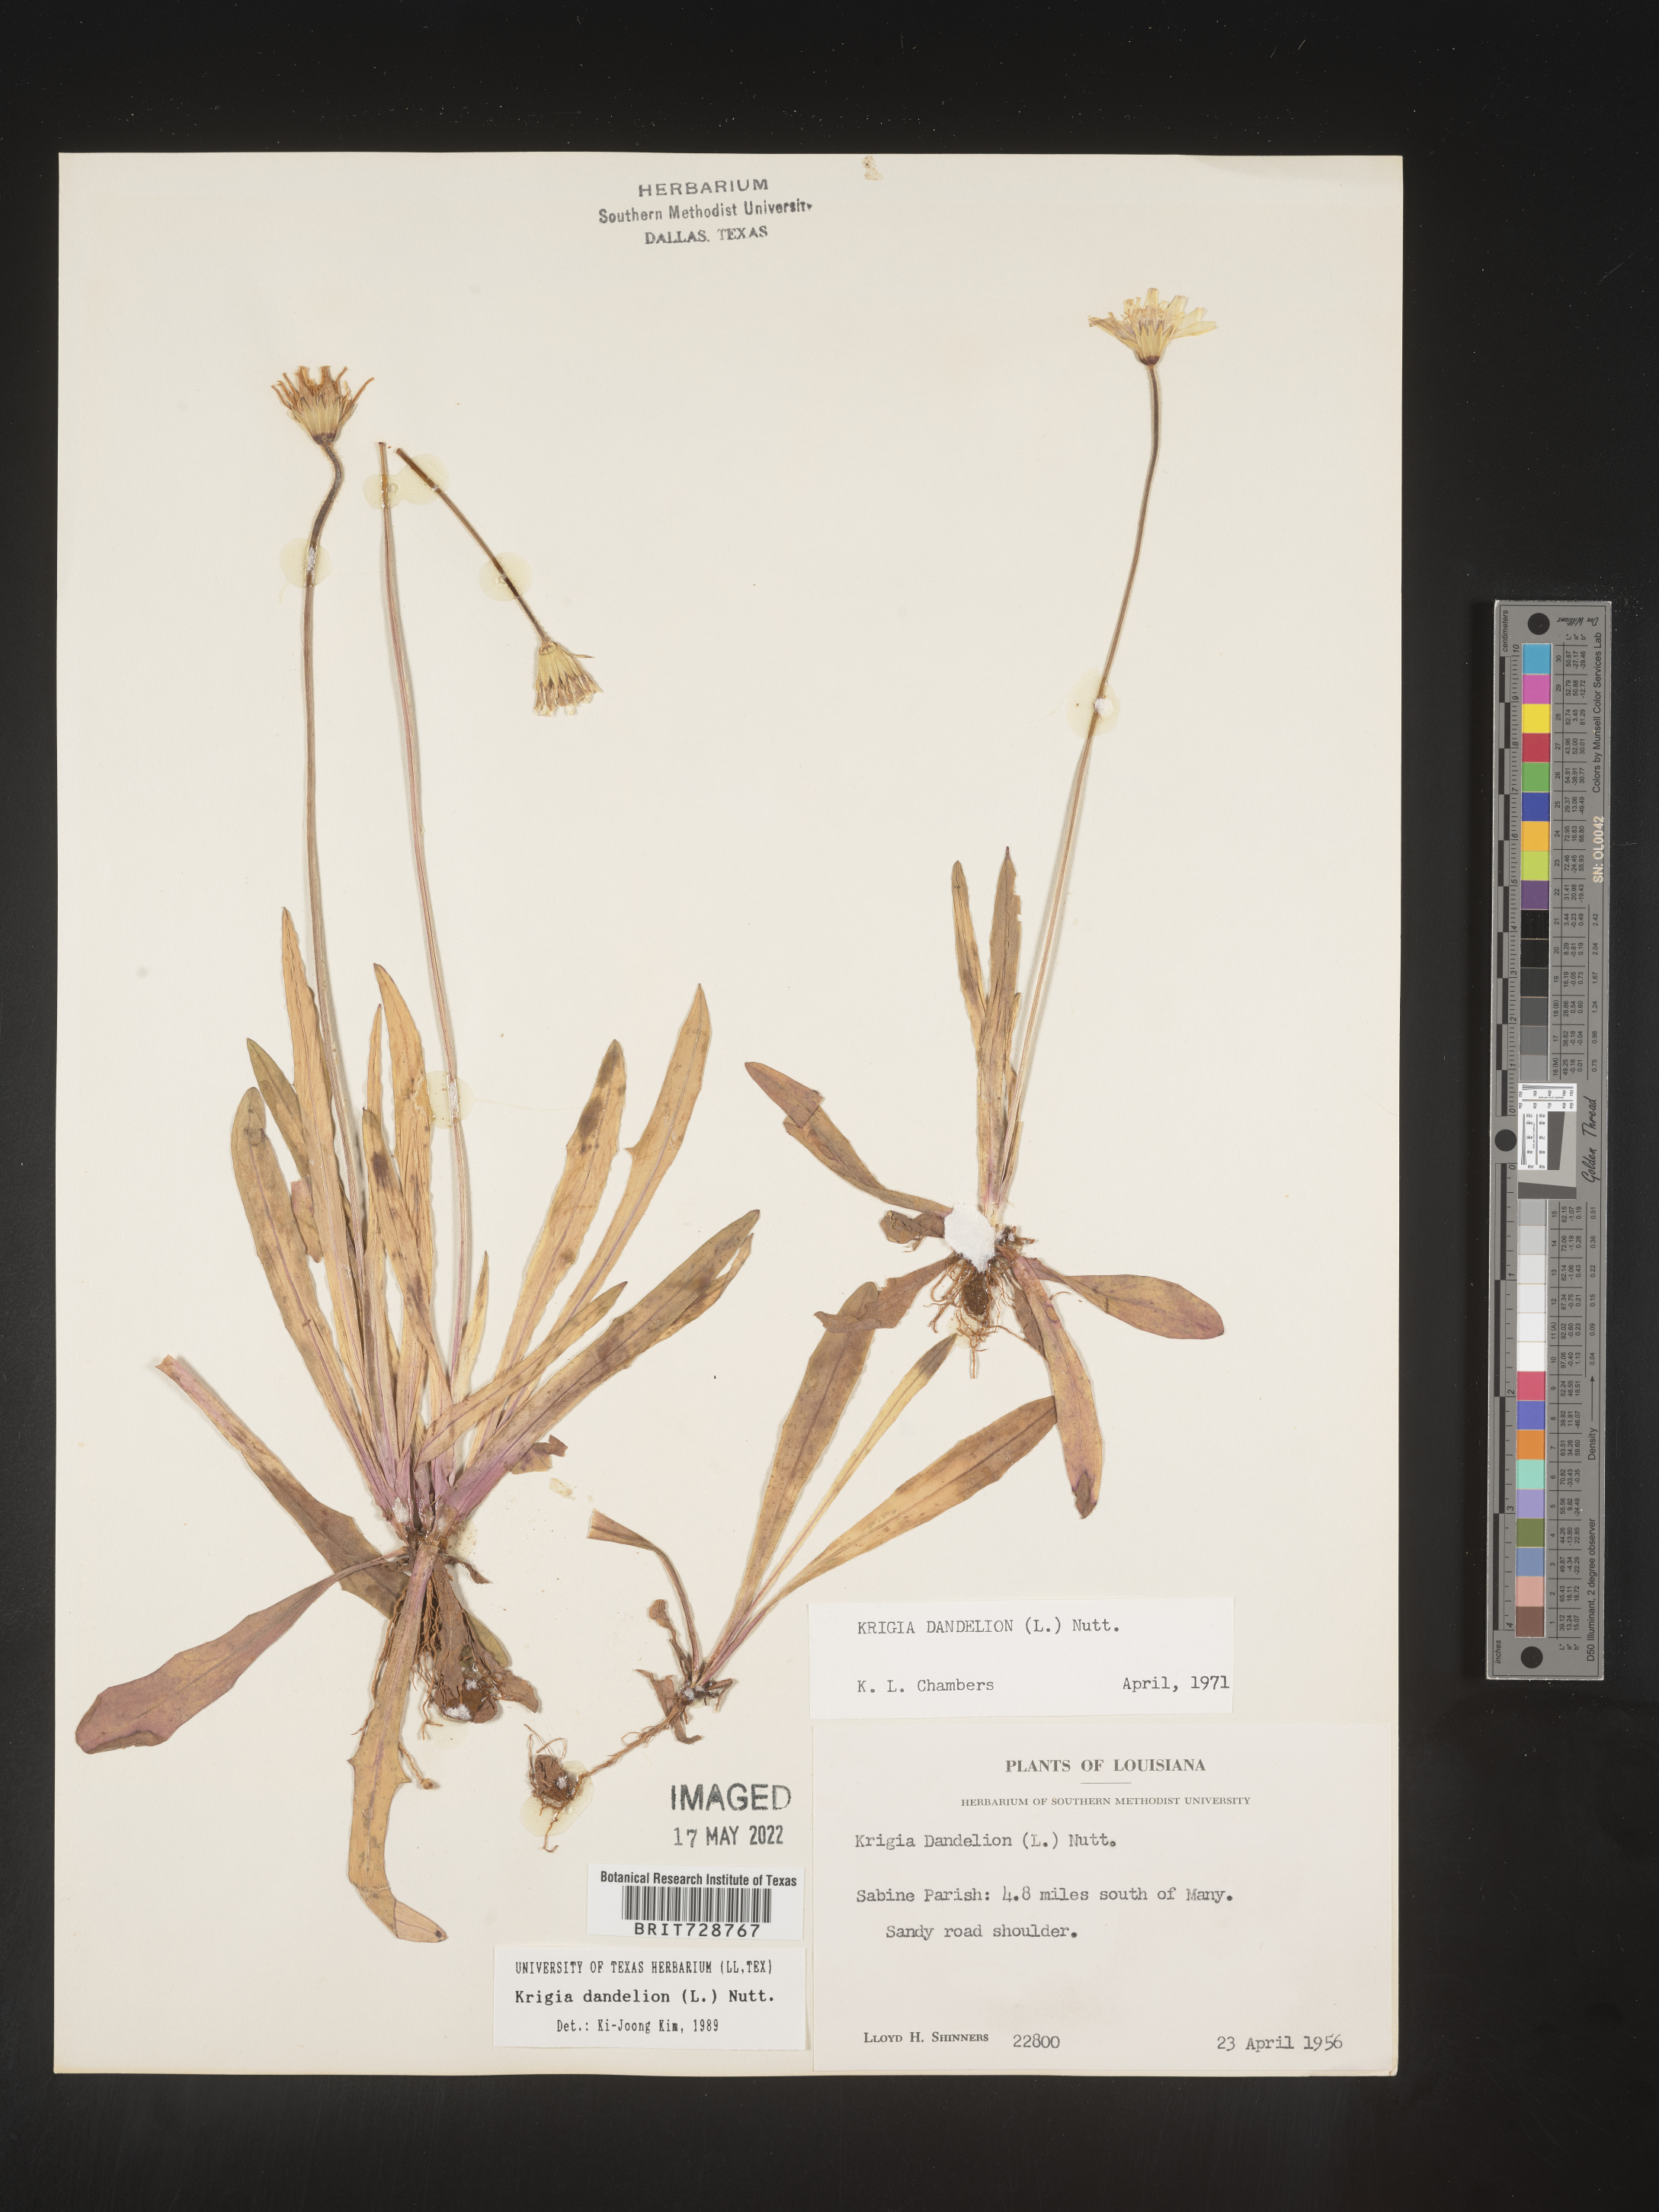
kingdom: Plantae
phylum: Tracheophyta
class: Magnoliopsida
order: Asterales
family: Asteraceae
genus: Krigia
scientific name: Krigia dandelion
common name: Colonial dwarf-dandelion
